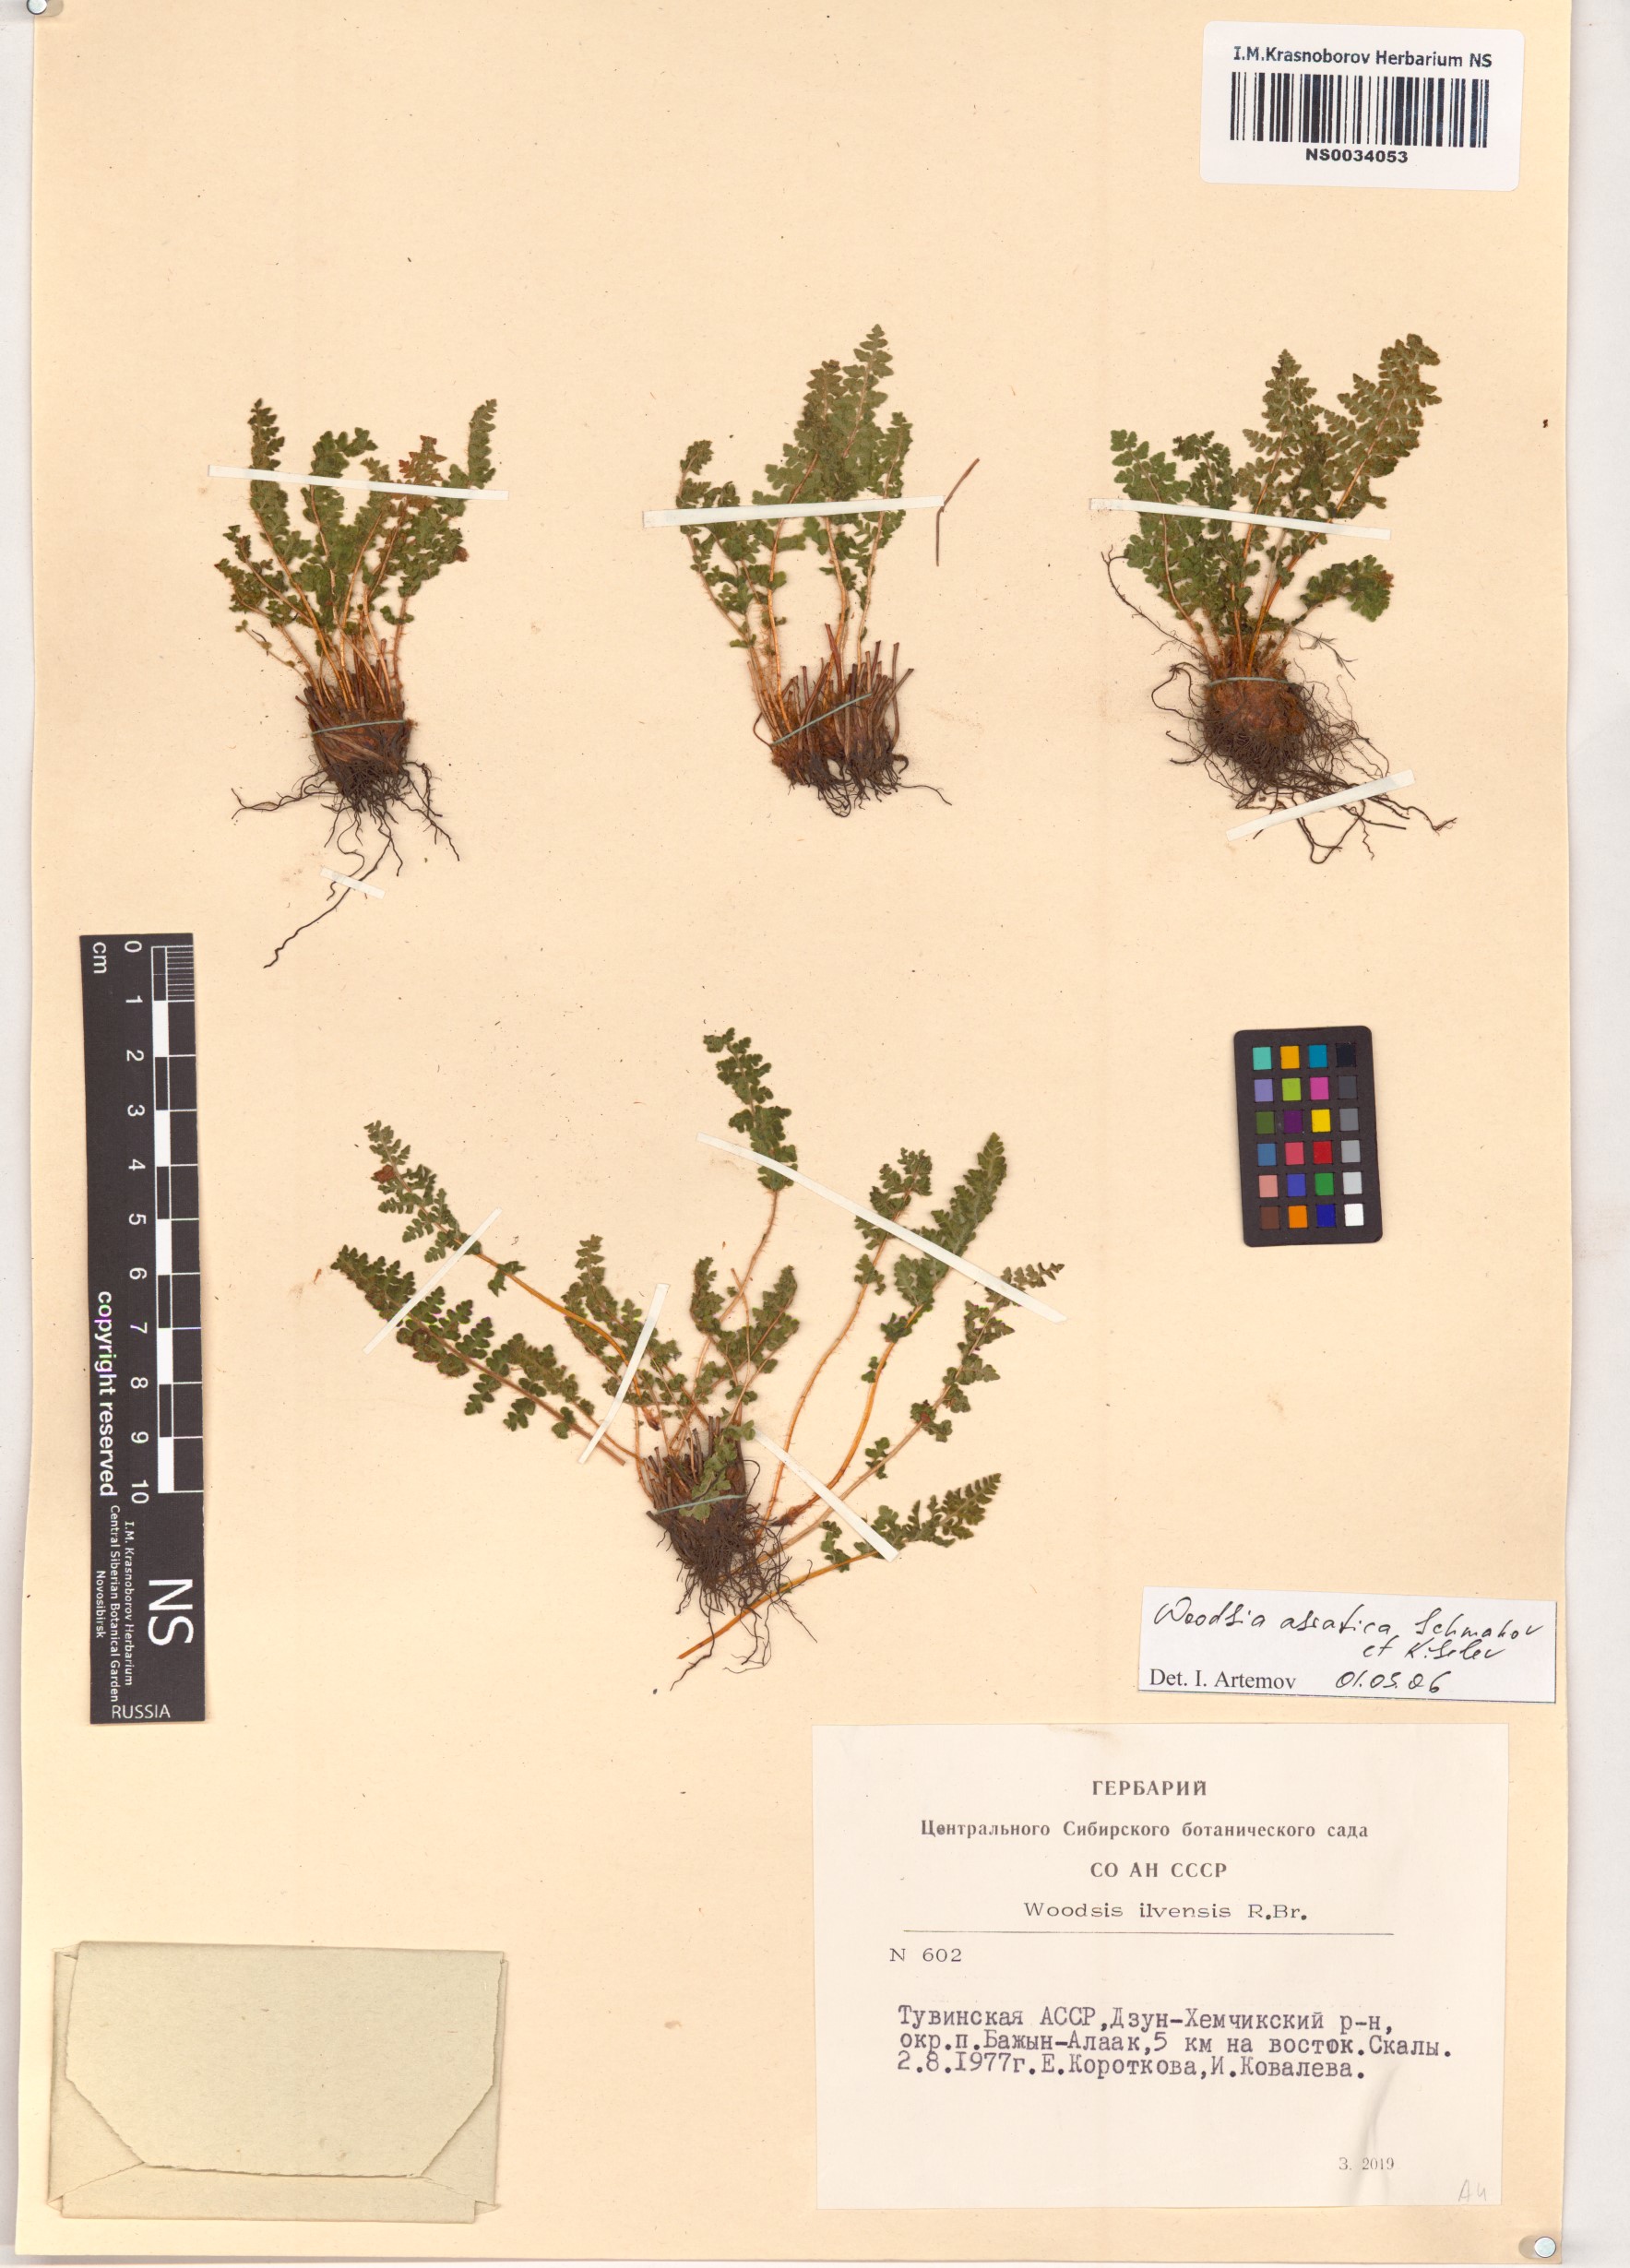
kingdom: Plantae
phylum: Tracheophyta
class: Polypodiopsida
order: Polypodiales
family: Woodsiaceae
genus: Woodsia
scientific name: Woodsia asiatica
